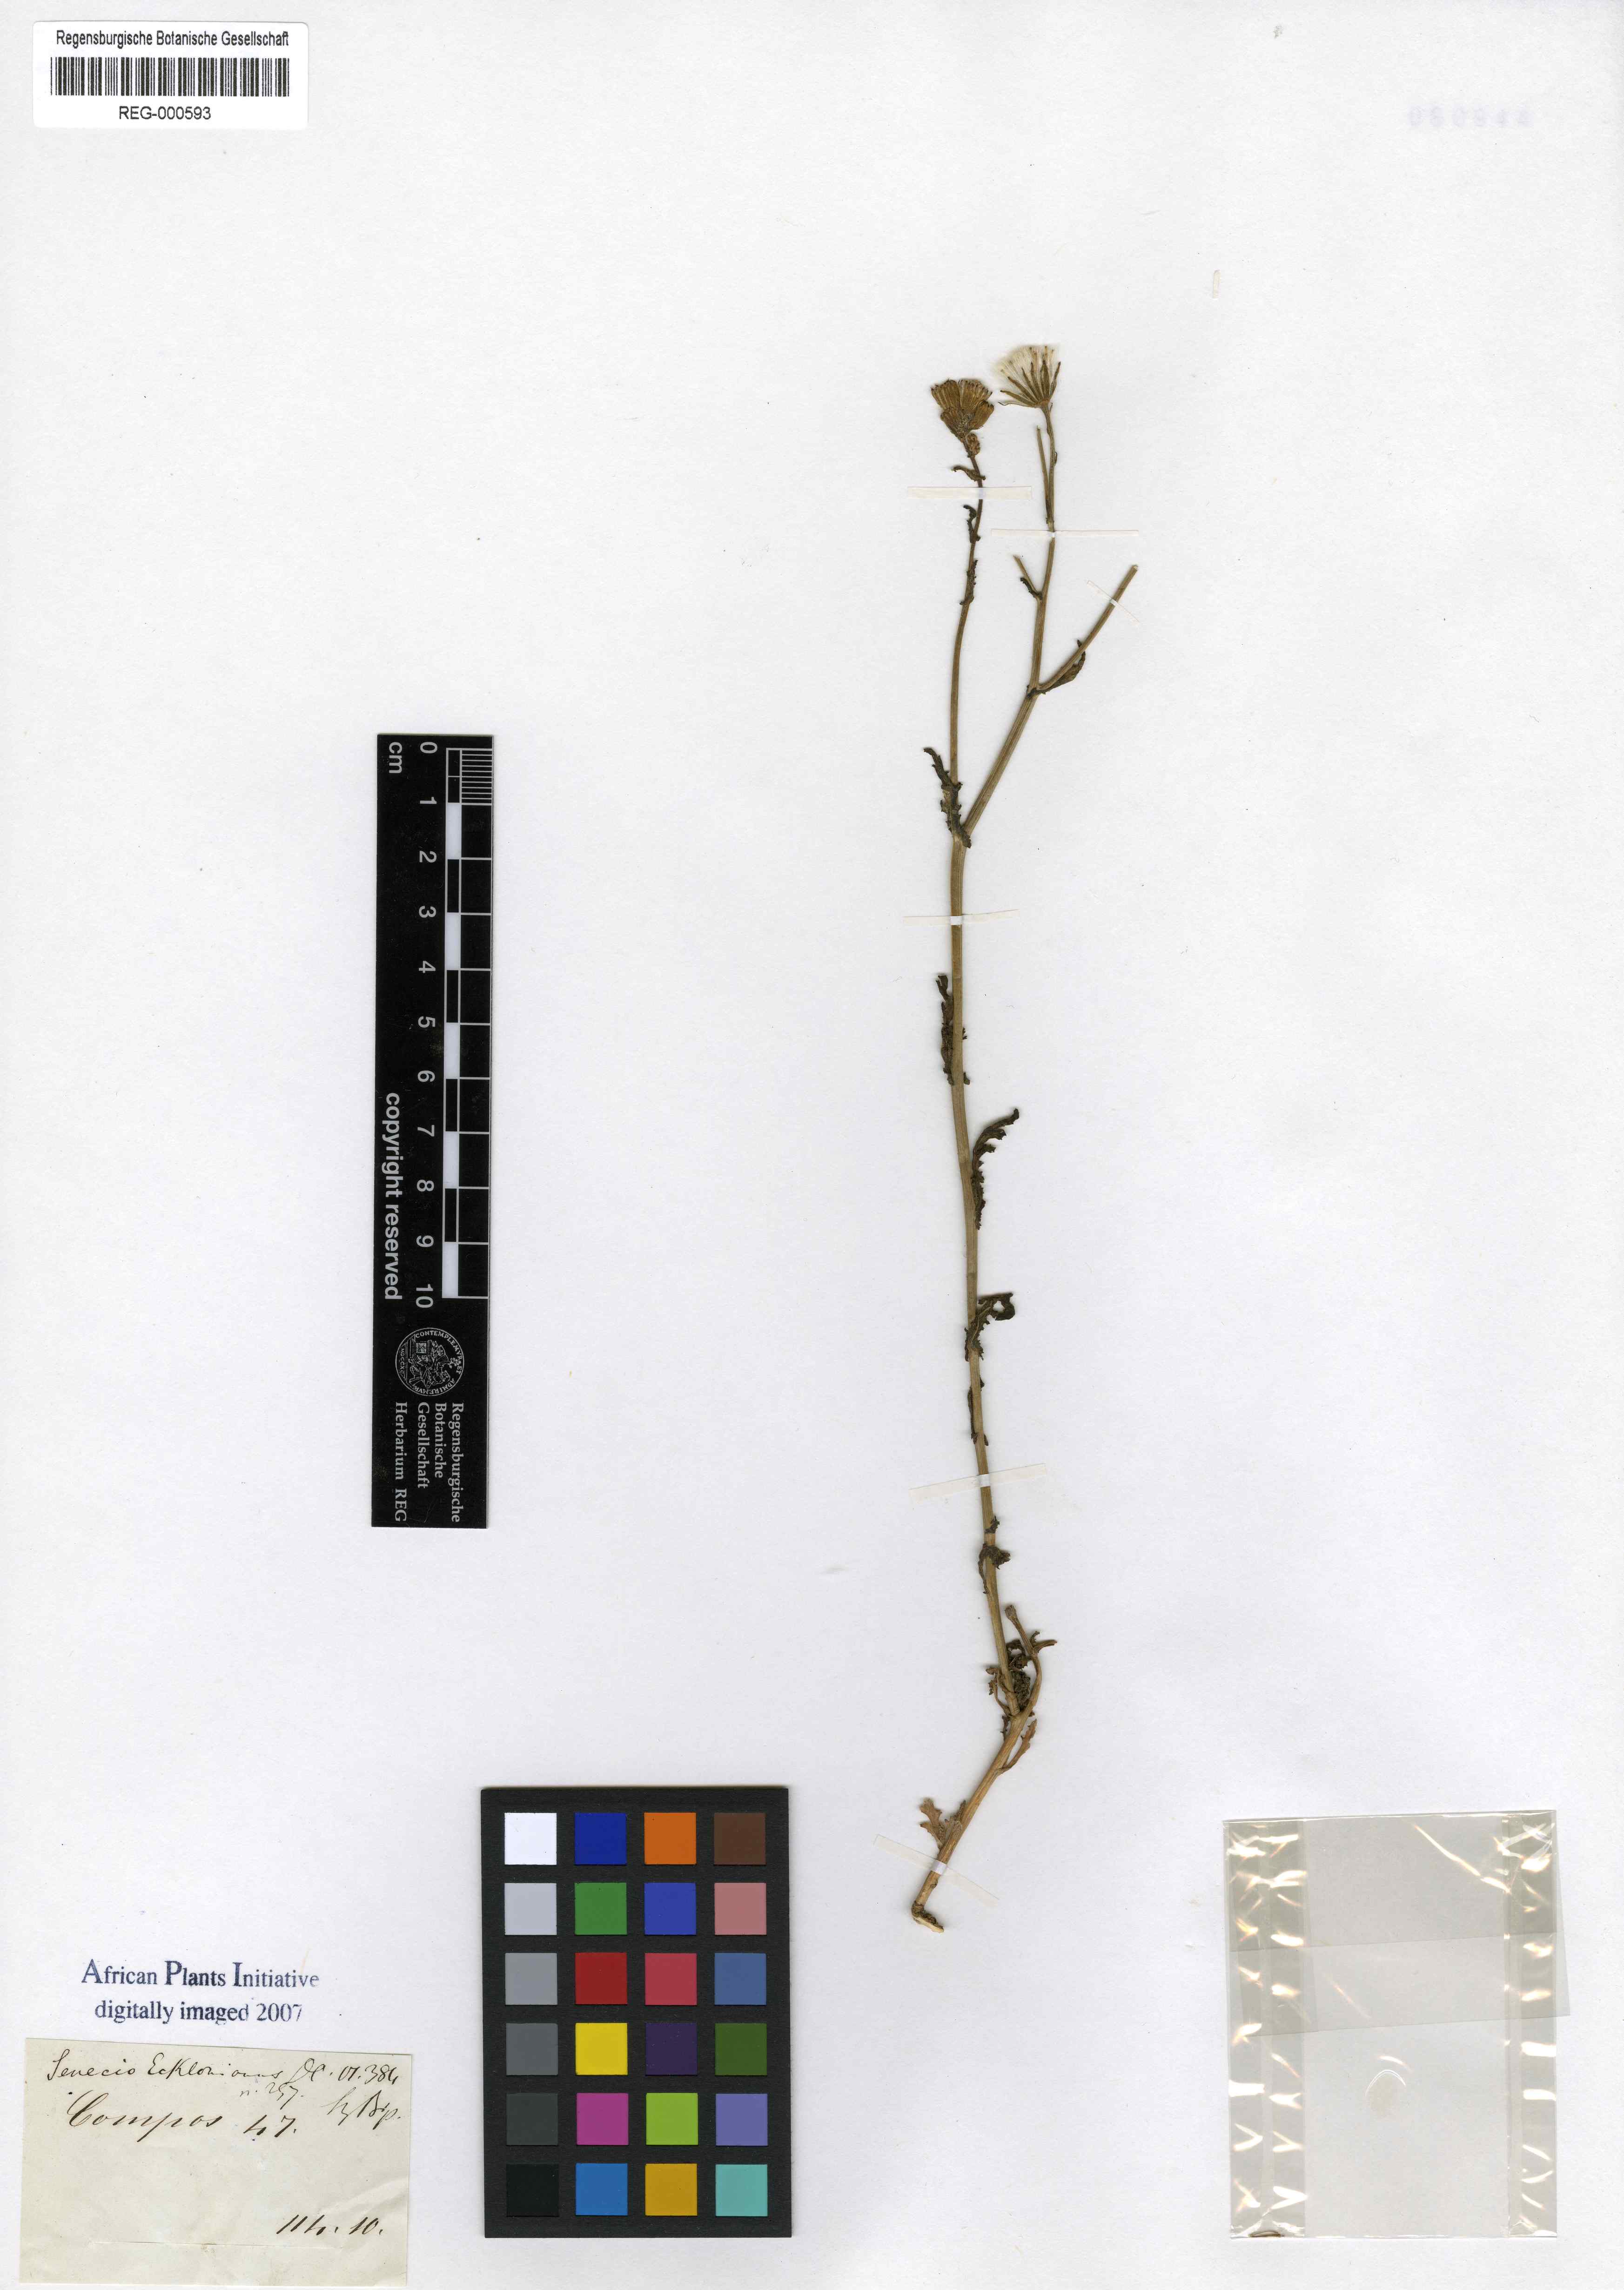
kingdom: Plantae
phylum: Tracheophyta
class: Magnoliopsida
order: Asterales
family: Asteraceae
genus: Senecio
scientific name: Senecio spiraeifolius
